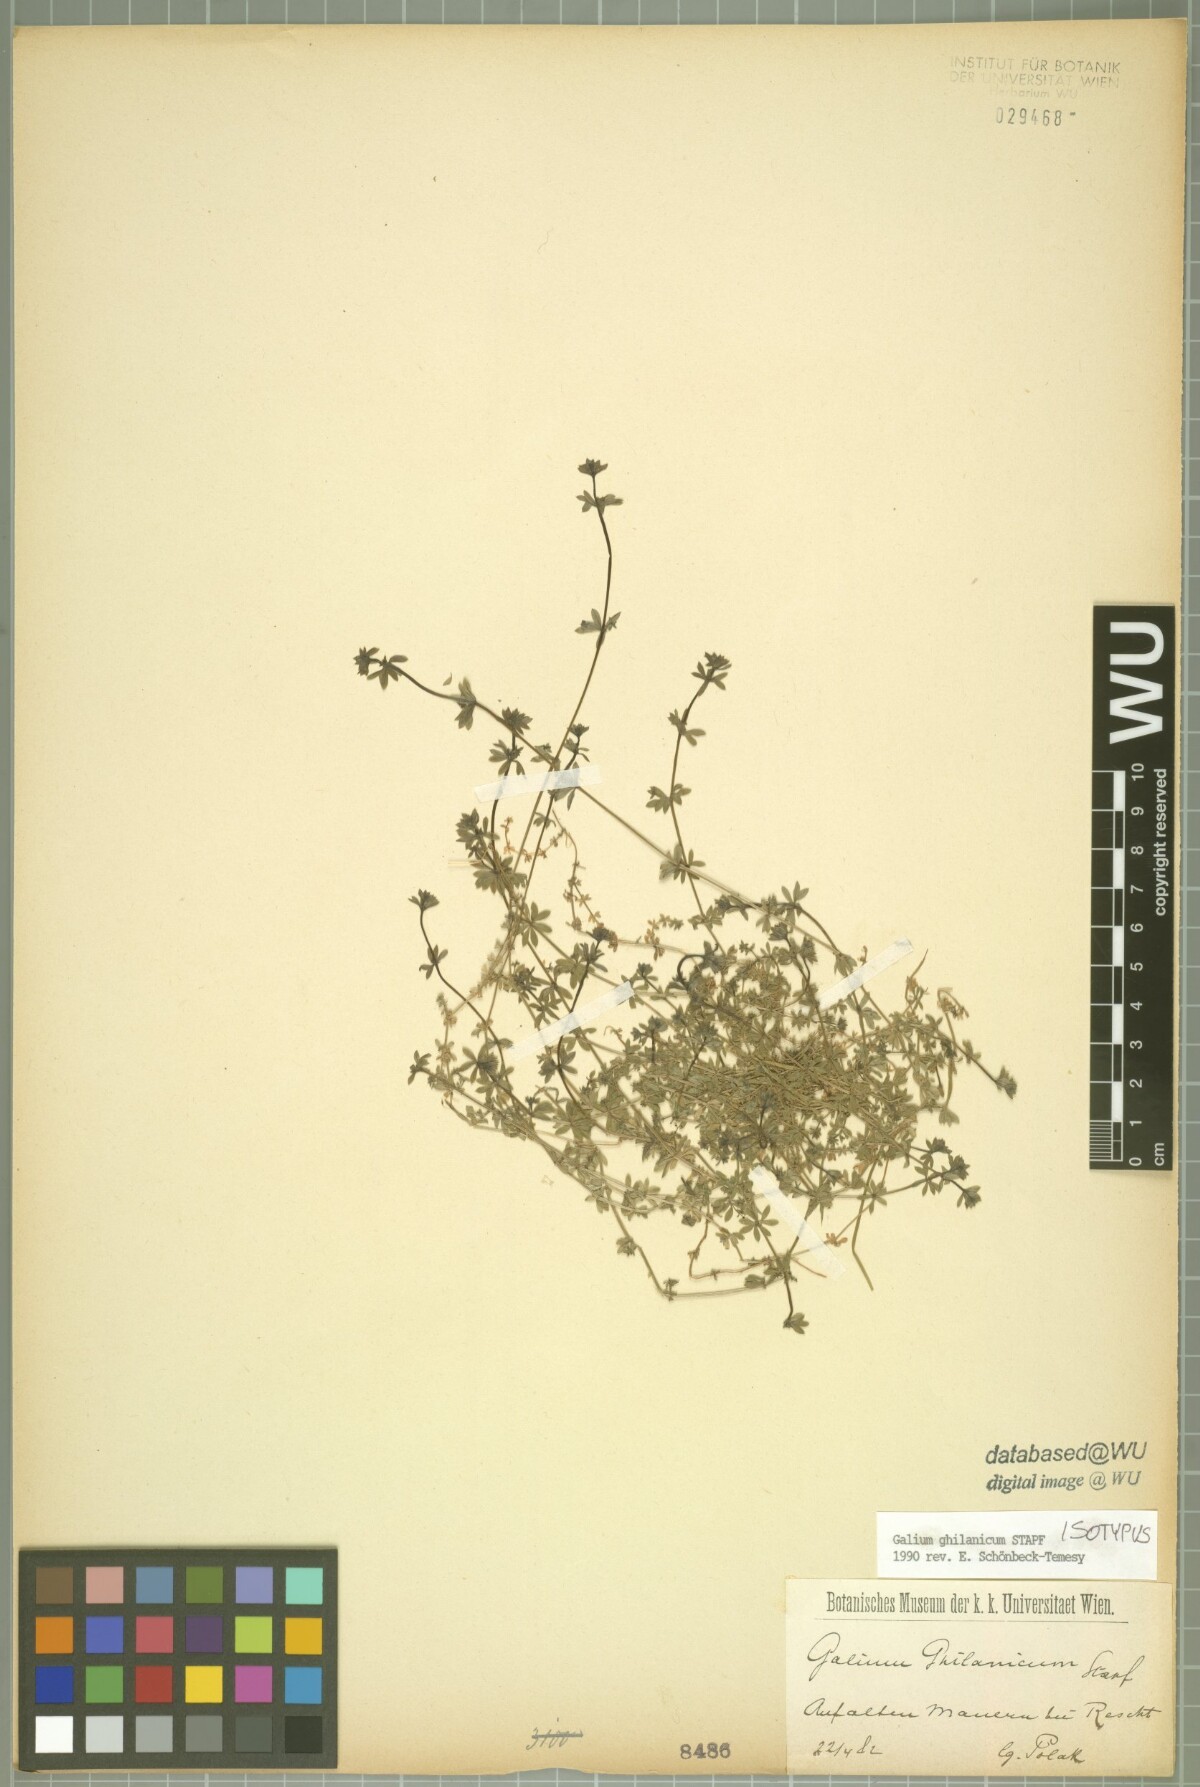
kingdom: Plantae
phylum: Tracheophyta
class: Magnoliopsida
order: Gentianales
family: Rubiaceae
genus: Galium
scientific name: Galium ghilanicum
